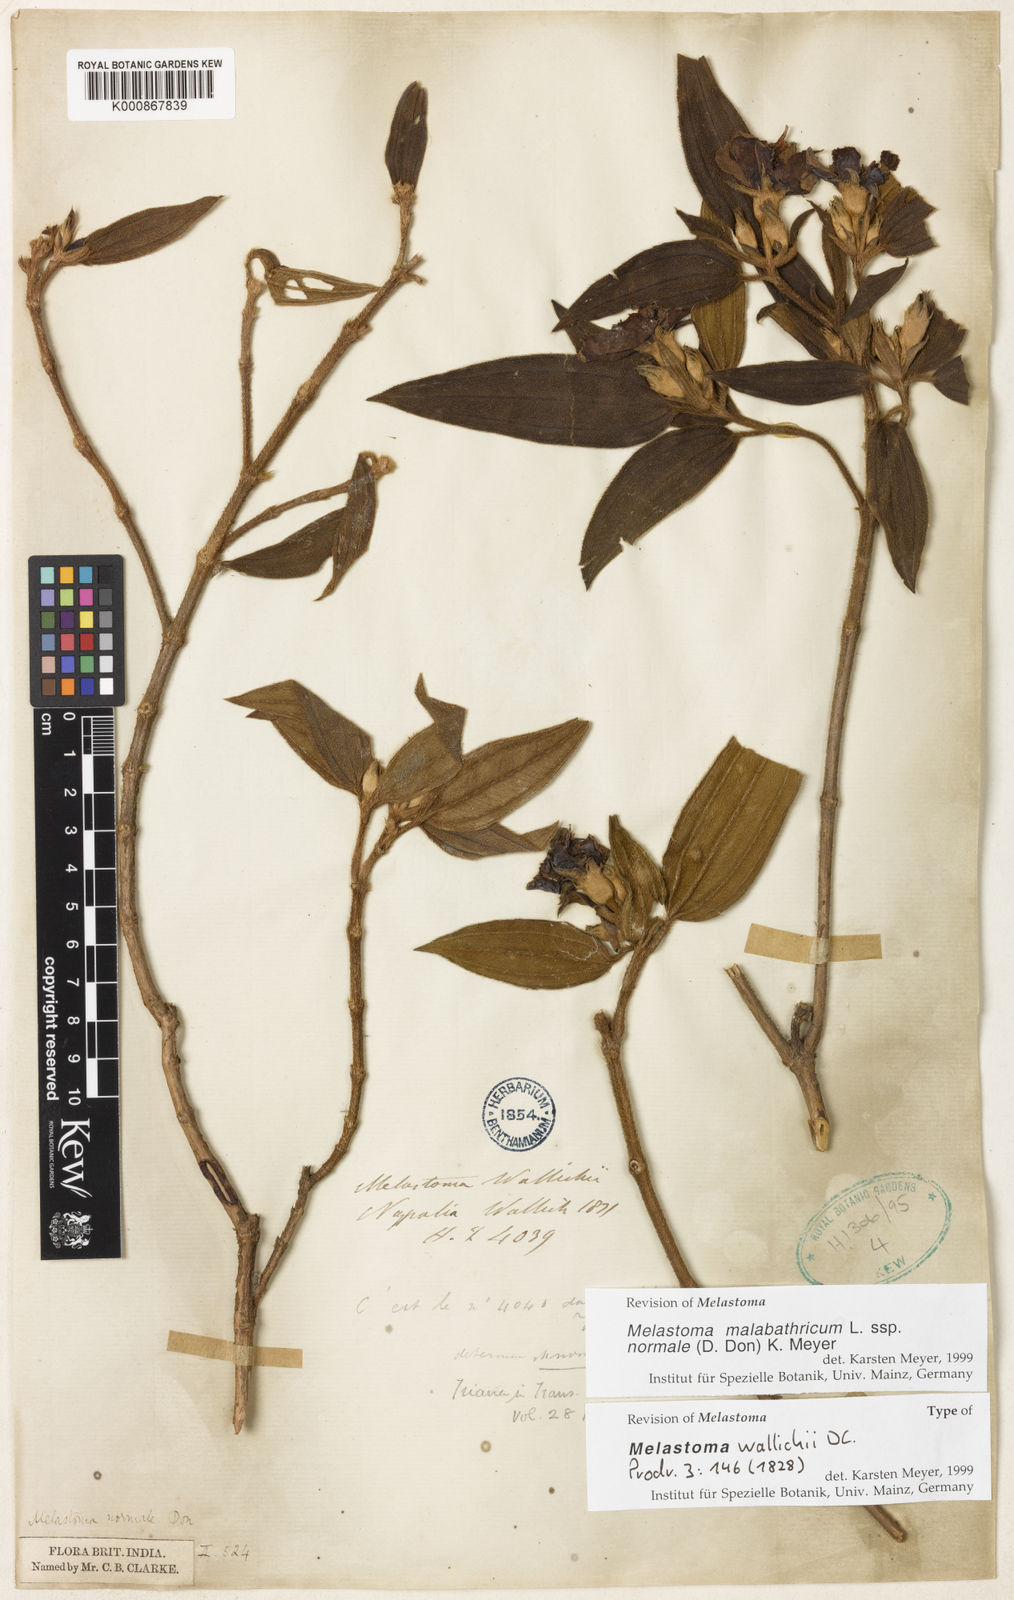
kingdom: Plantae
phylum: Tracheophyta
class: Magnoliopsida
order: Myrtales
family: Melastomataceae
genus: Melastoma
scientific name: Melastoma malabathricum
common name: Indian-rhododendron
